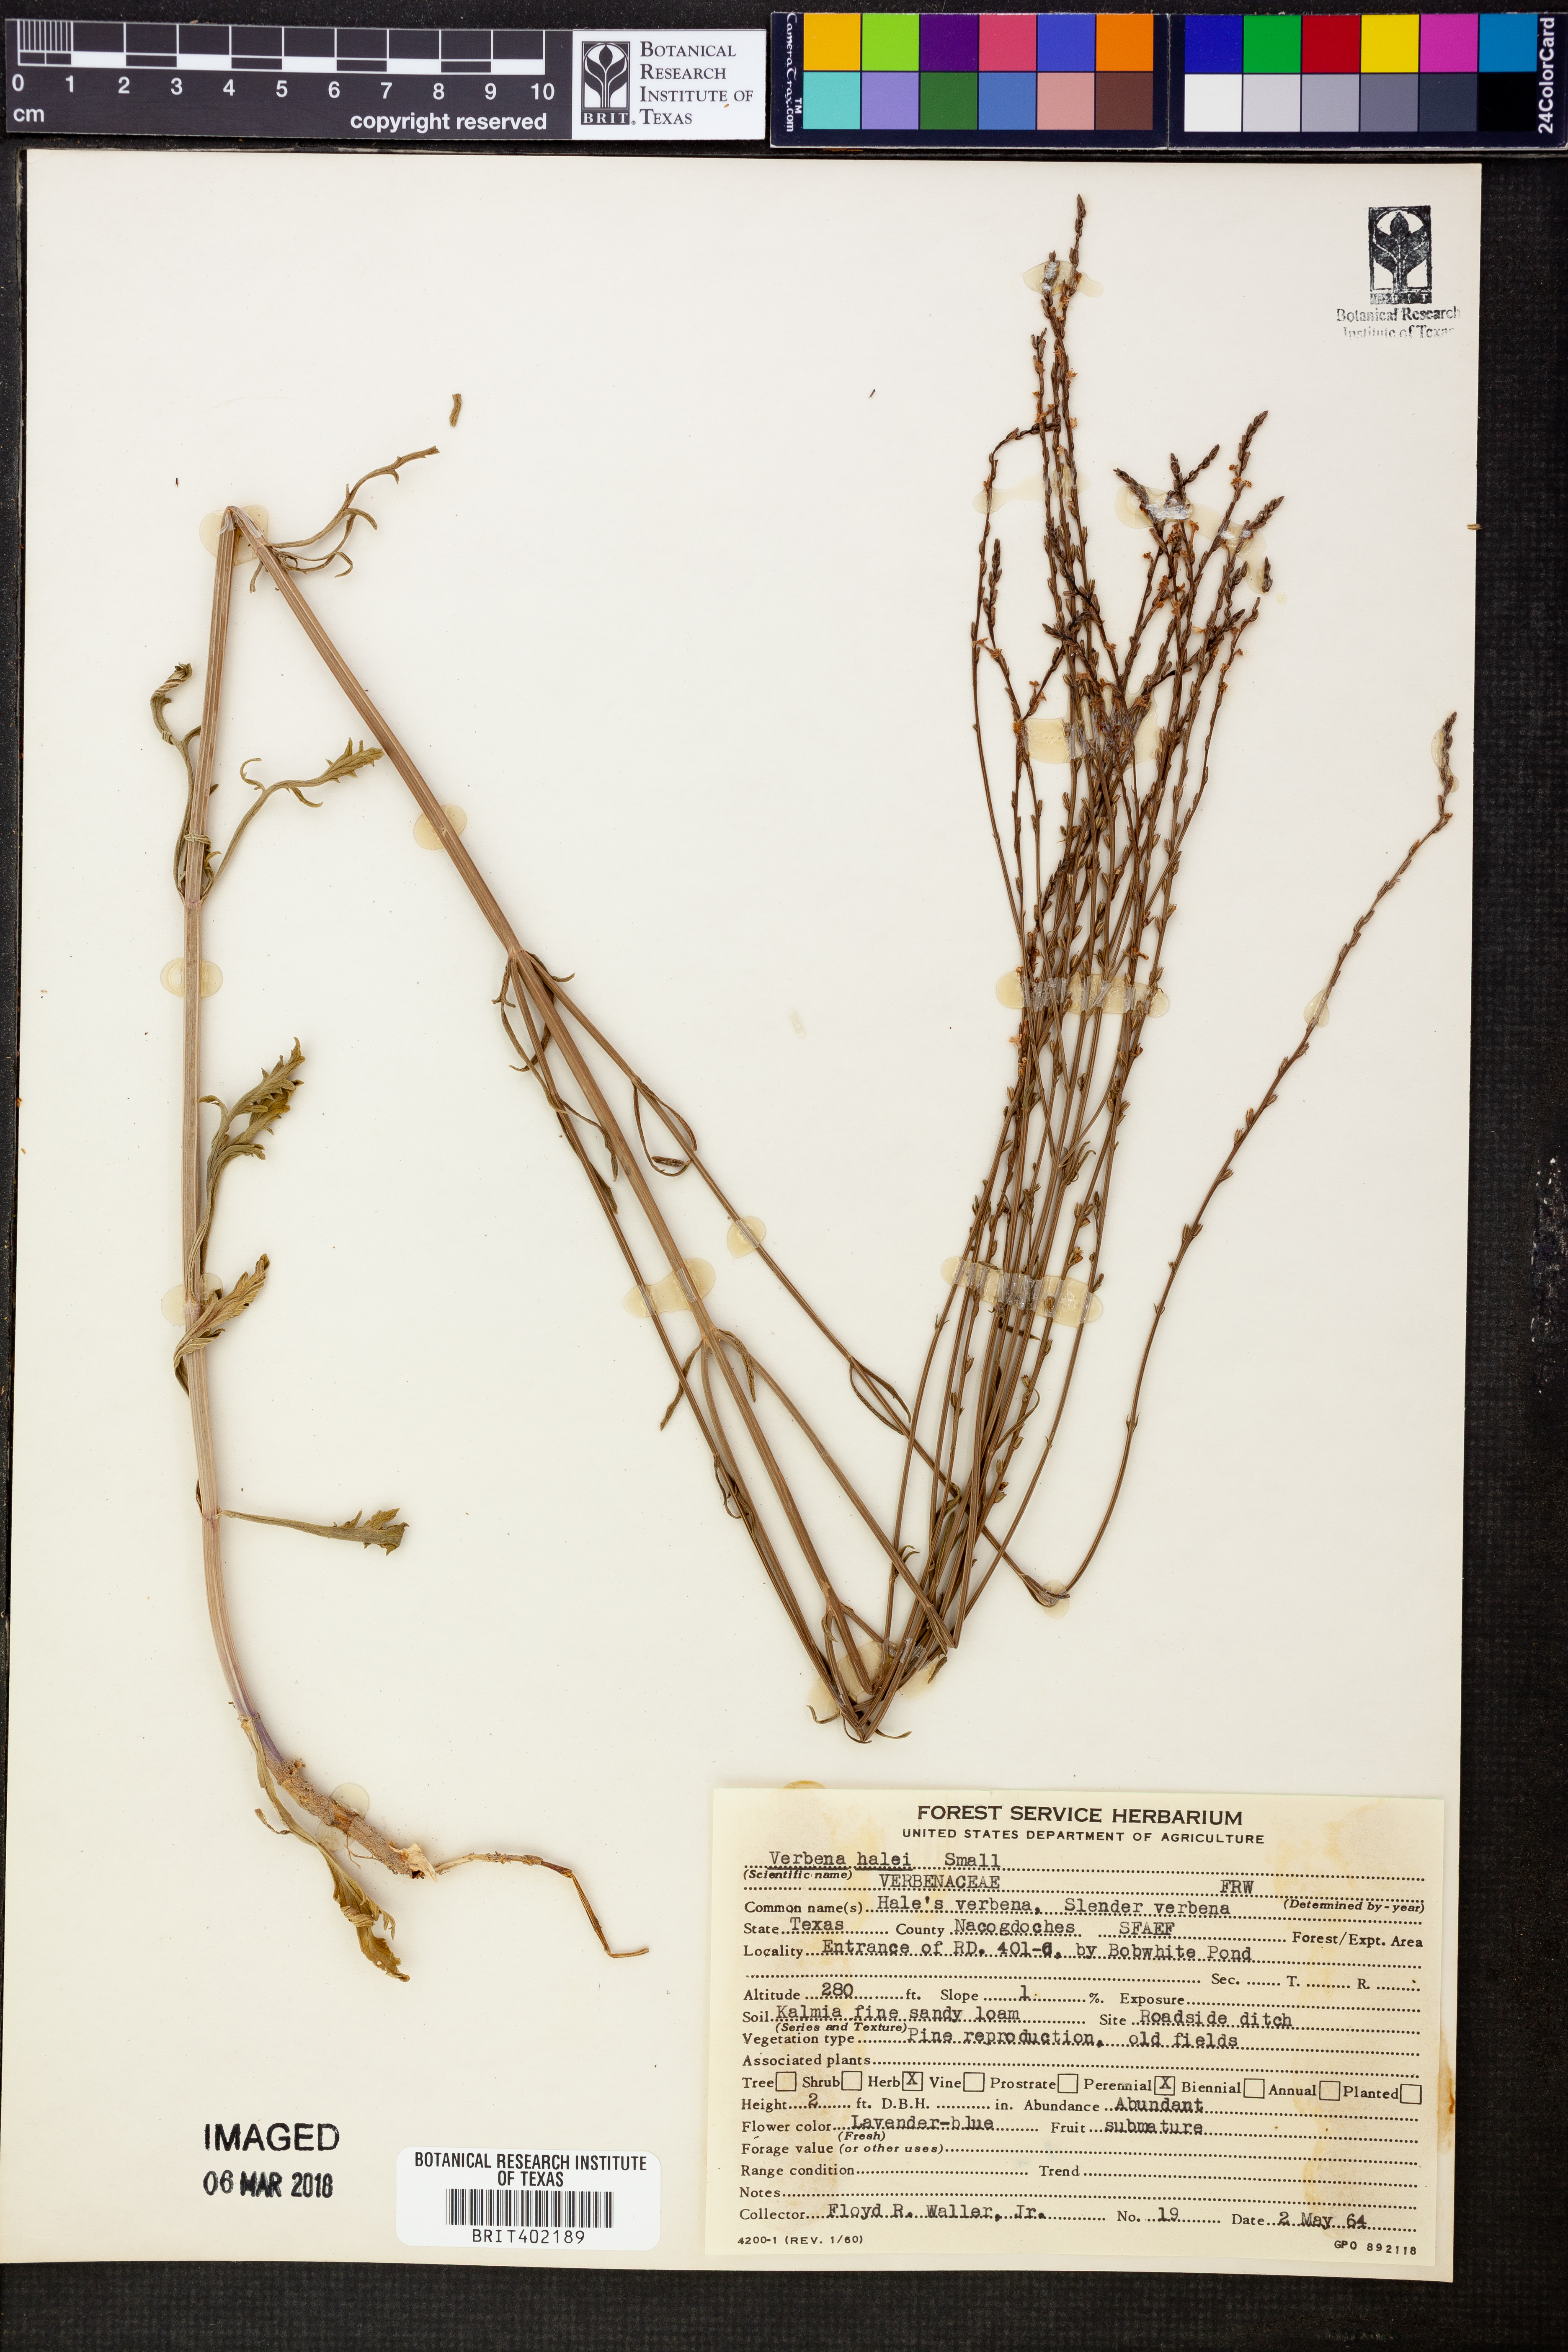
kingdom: Plantae
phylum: Tracheophyta
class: Magnoliopsida
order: Lamiales
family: Verbenaceae
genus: Verbena
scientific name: Verbena halei
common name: Texas vervain
